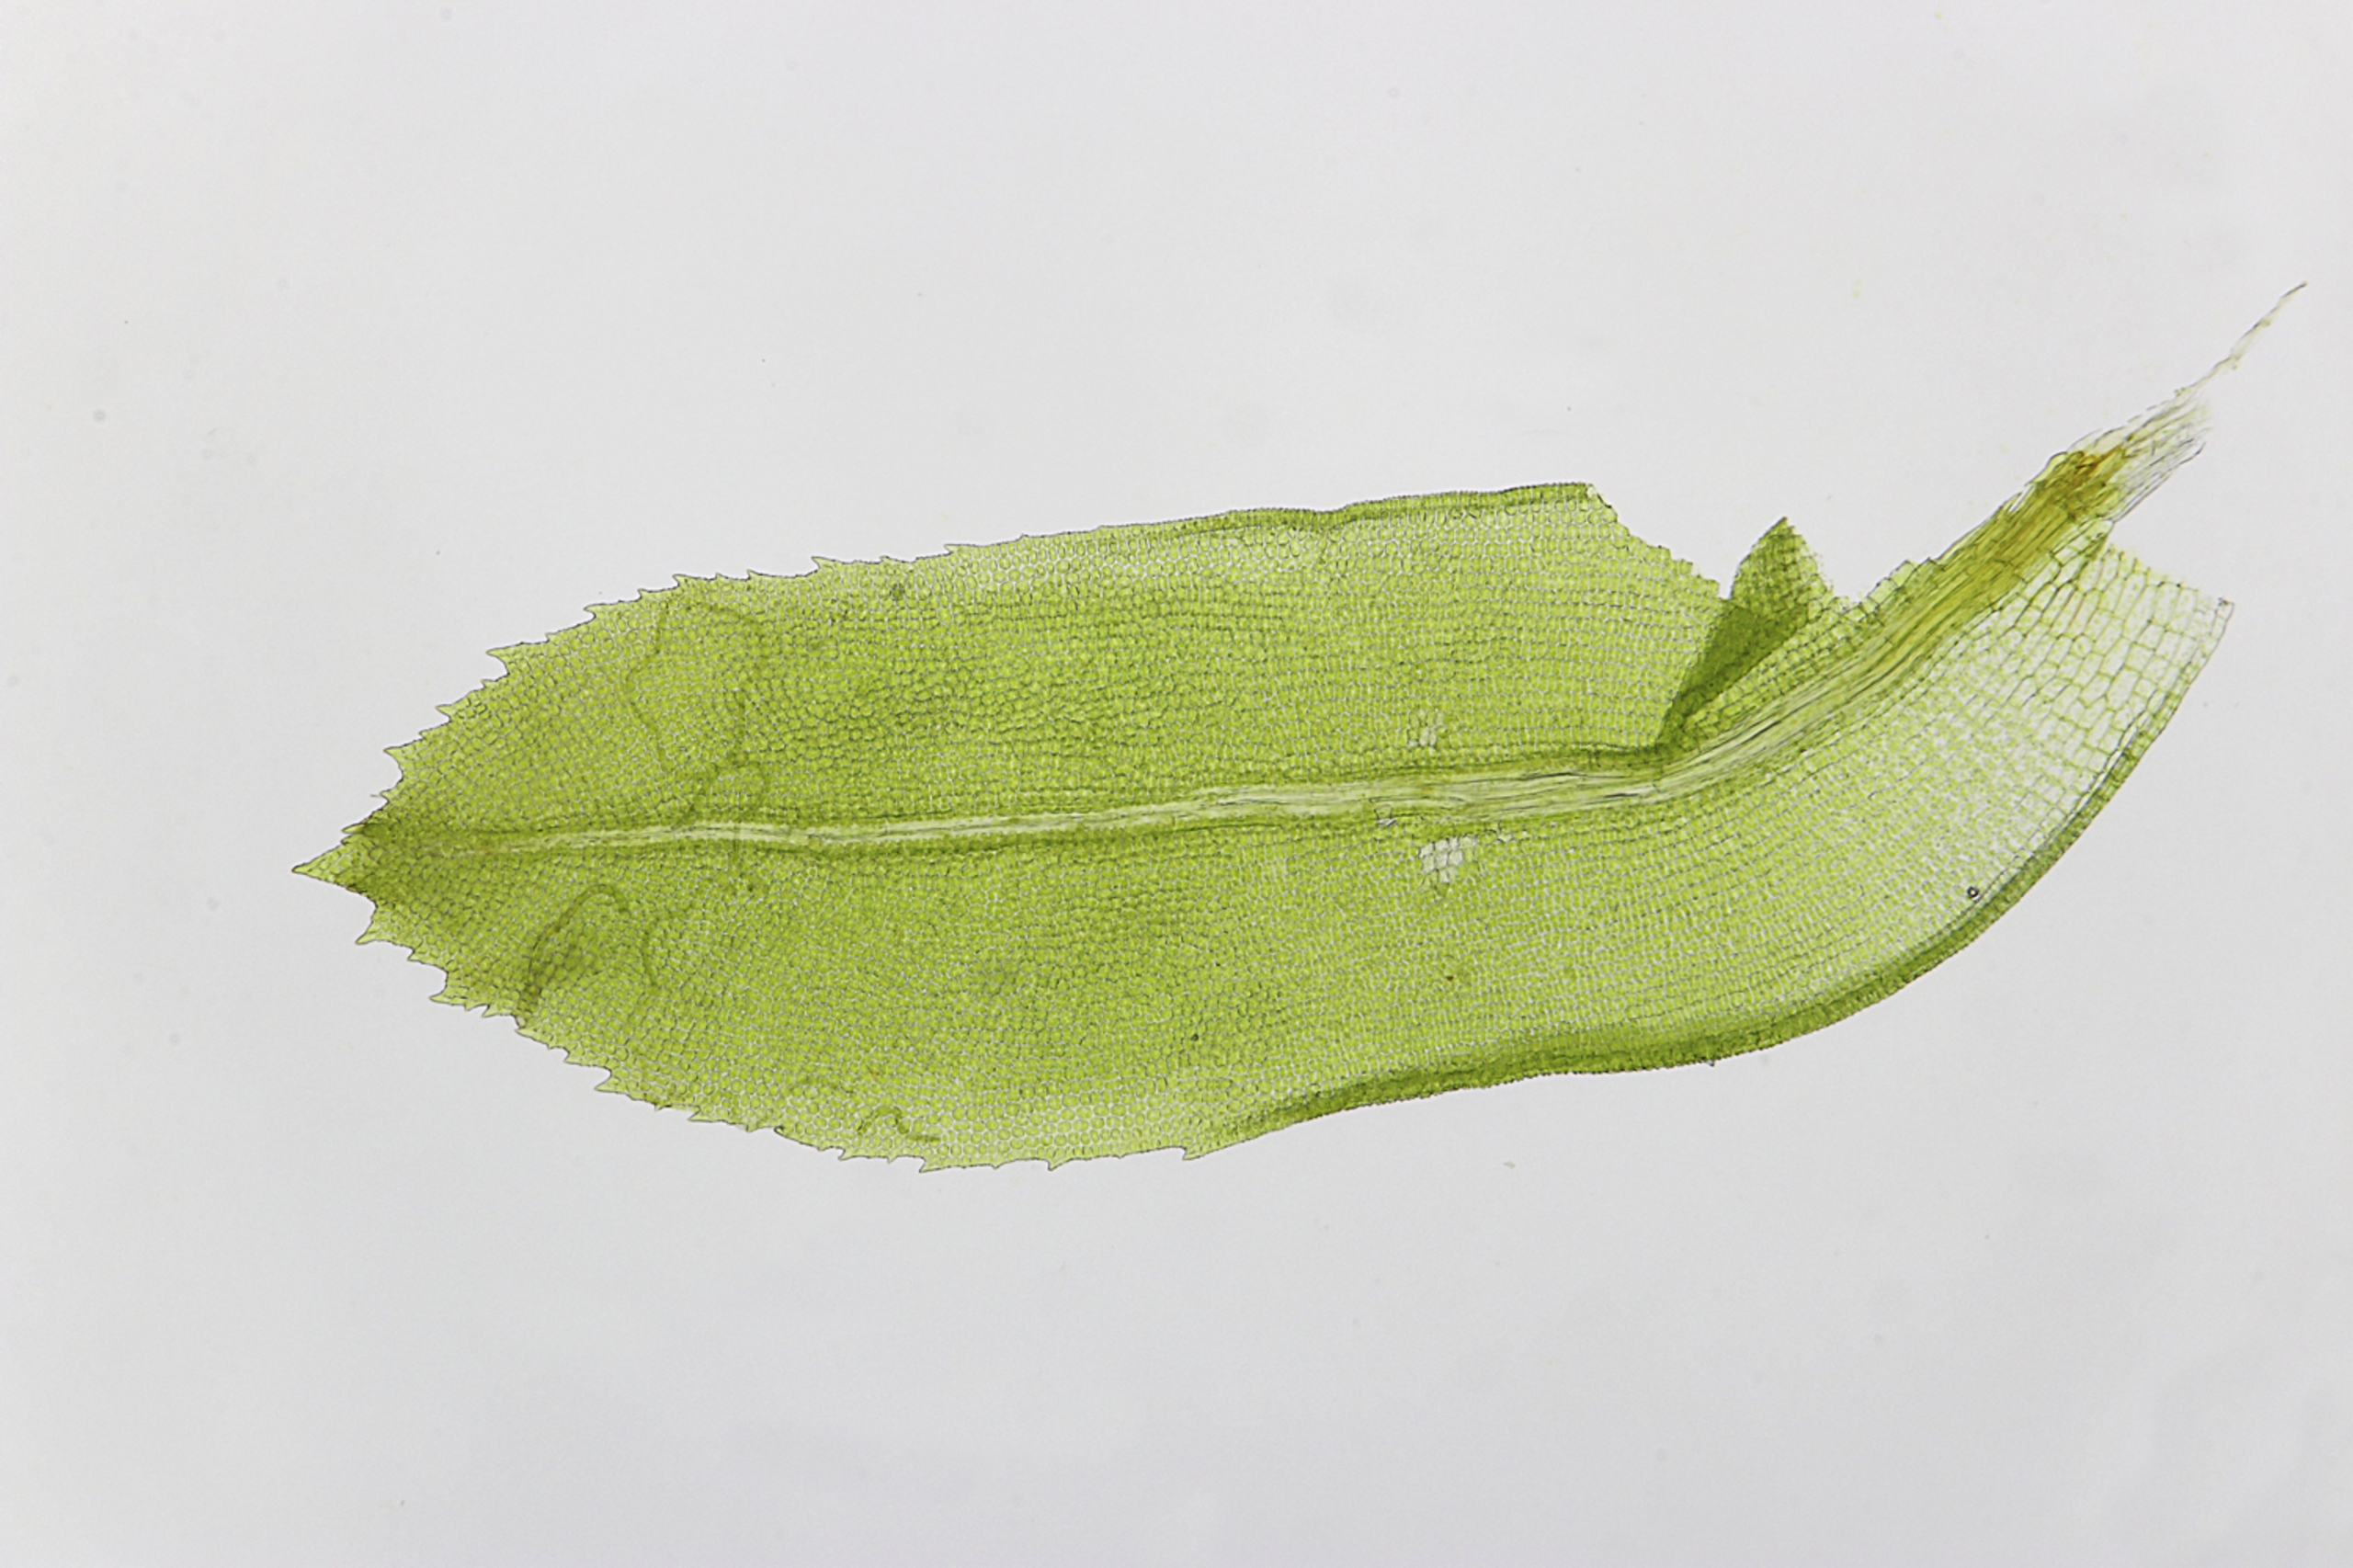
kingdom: Plantae
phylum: Bryophyta
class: Bryopsida
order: Pottiales
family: Pottiaceae
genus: Leptodontium
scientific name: Leptodontium flexifolium
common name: Blød smaltand
